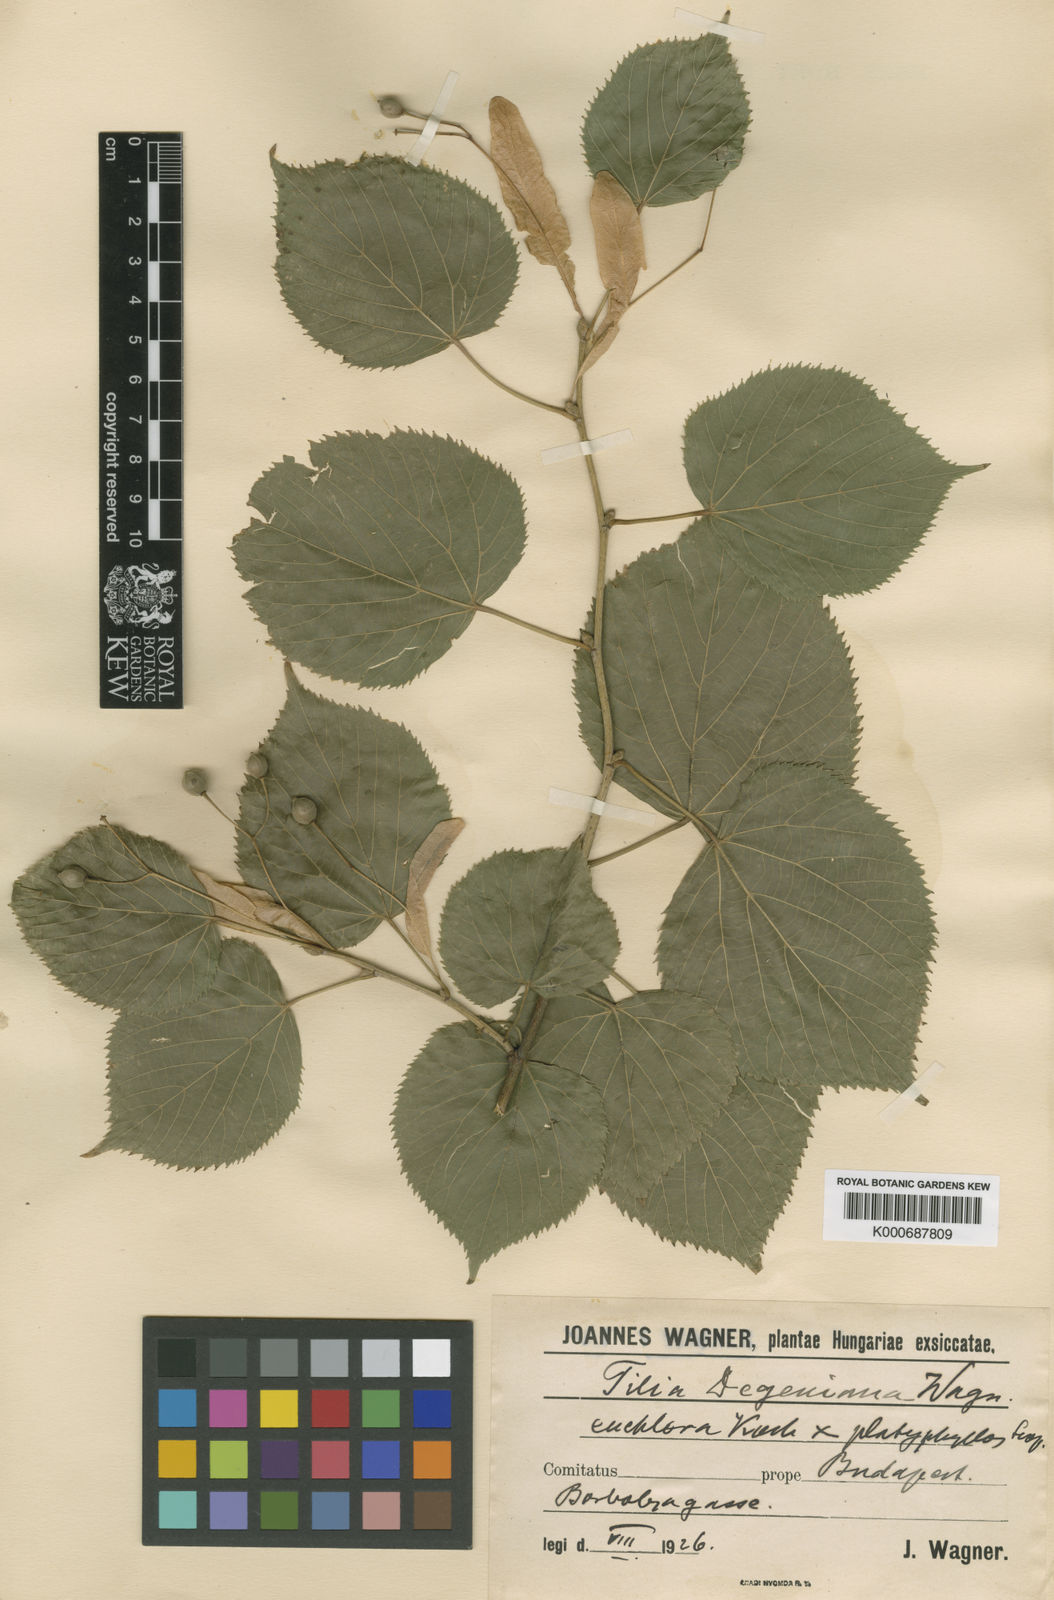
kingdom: Plantae
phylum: Tracheophyta
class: Magnoliopsida
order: Malvales
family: Malvaceae
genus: Tilia
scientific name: Tilia
